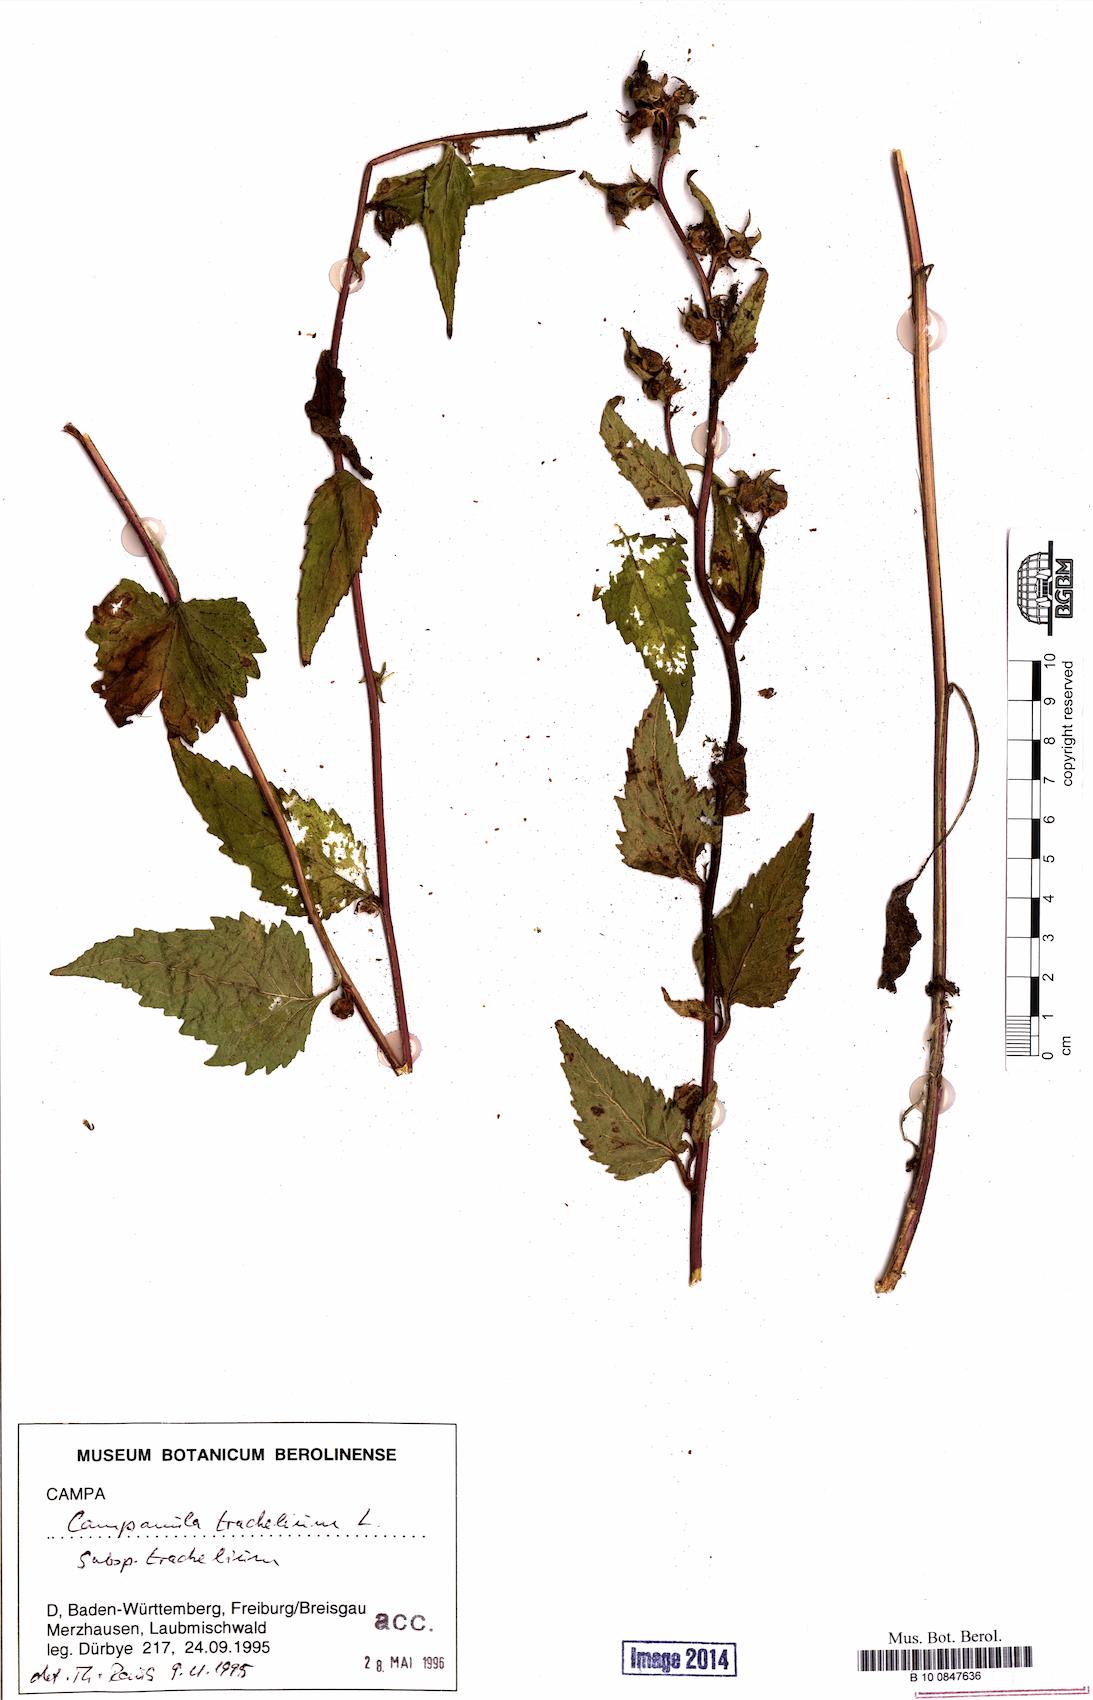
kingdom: Plantae
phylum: Tracheophyta
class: Magnoliopsida
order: Asterales
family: Campanulaceae
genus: Campanula
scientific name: Campanula trachelium
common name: Nettle-leaved bellflower
